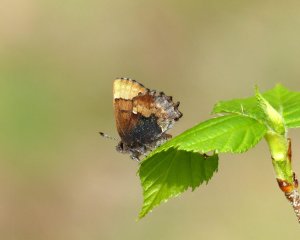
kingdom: Animalia
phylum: Arthropoda
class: Insecta
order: Lepidoptera
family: Lycaenidae
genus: Incisalia
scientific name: Incisalia henrici
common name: Henry's Elfin
